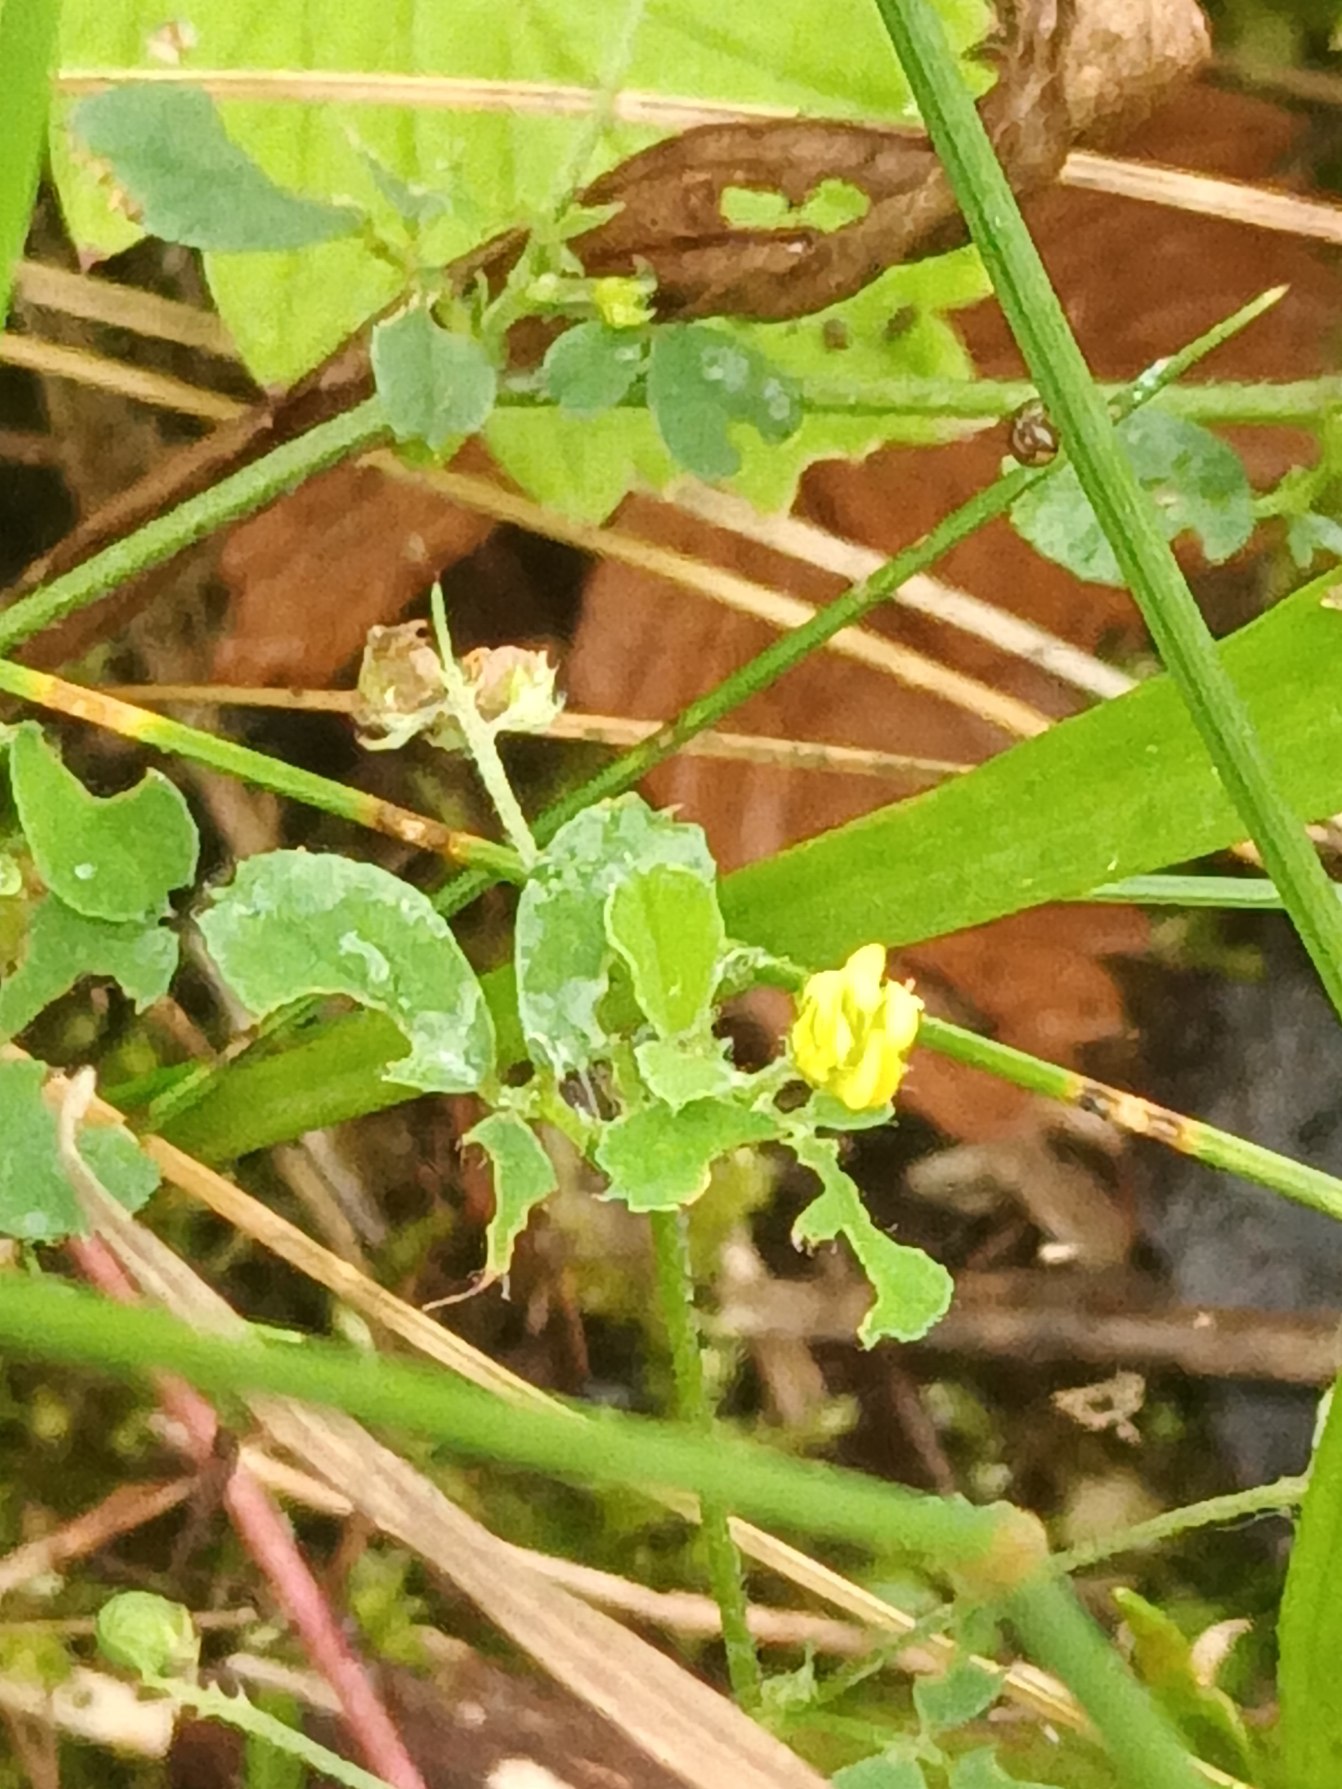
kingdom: Plantae
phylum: Tracheophyta
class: Magnoliopsida
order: Fabales
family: Fabaceae
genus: Medicago
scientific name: Medicago lupulina
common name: Humle-sneglebælg
